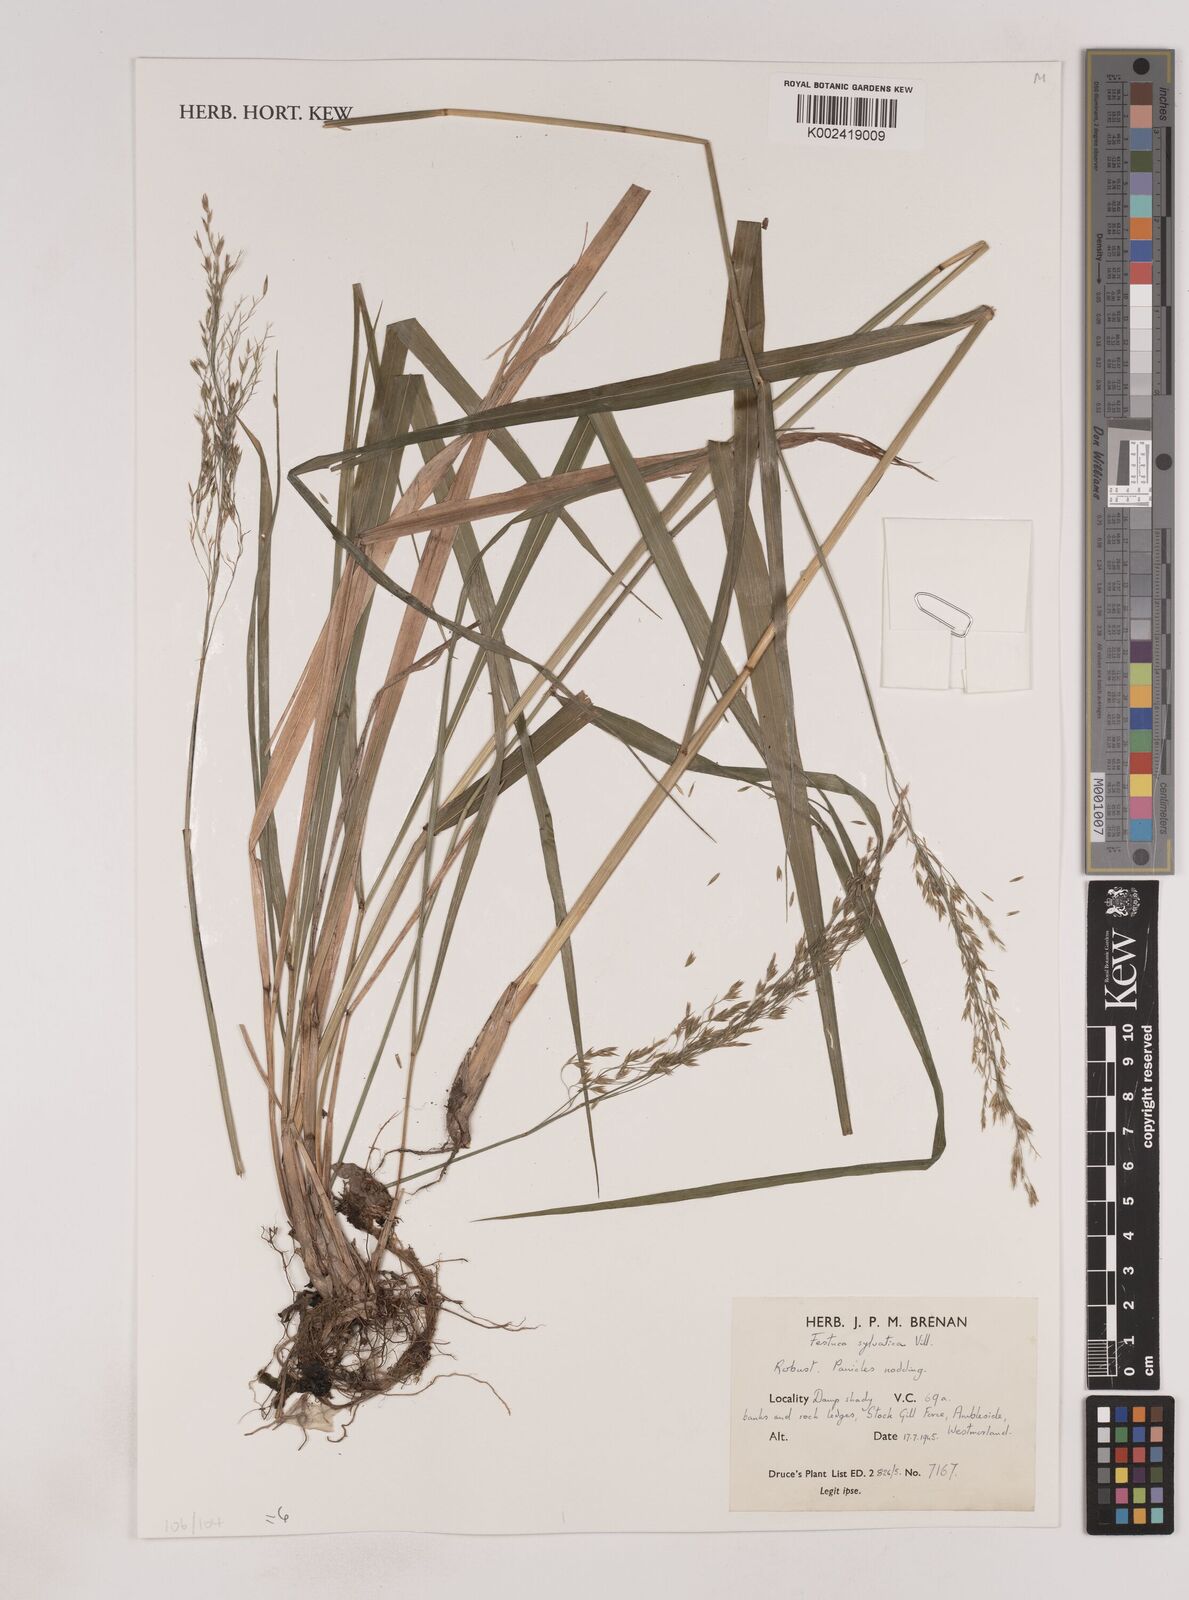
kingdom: Plantae
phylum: Tracheophyta
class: Liliopsida
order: Poales
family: Poaceae
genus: Festuca
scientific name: Festuca drymeja
